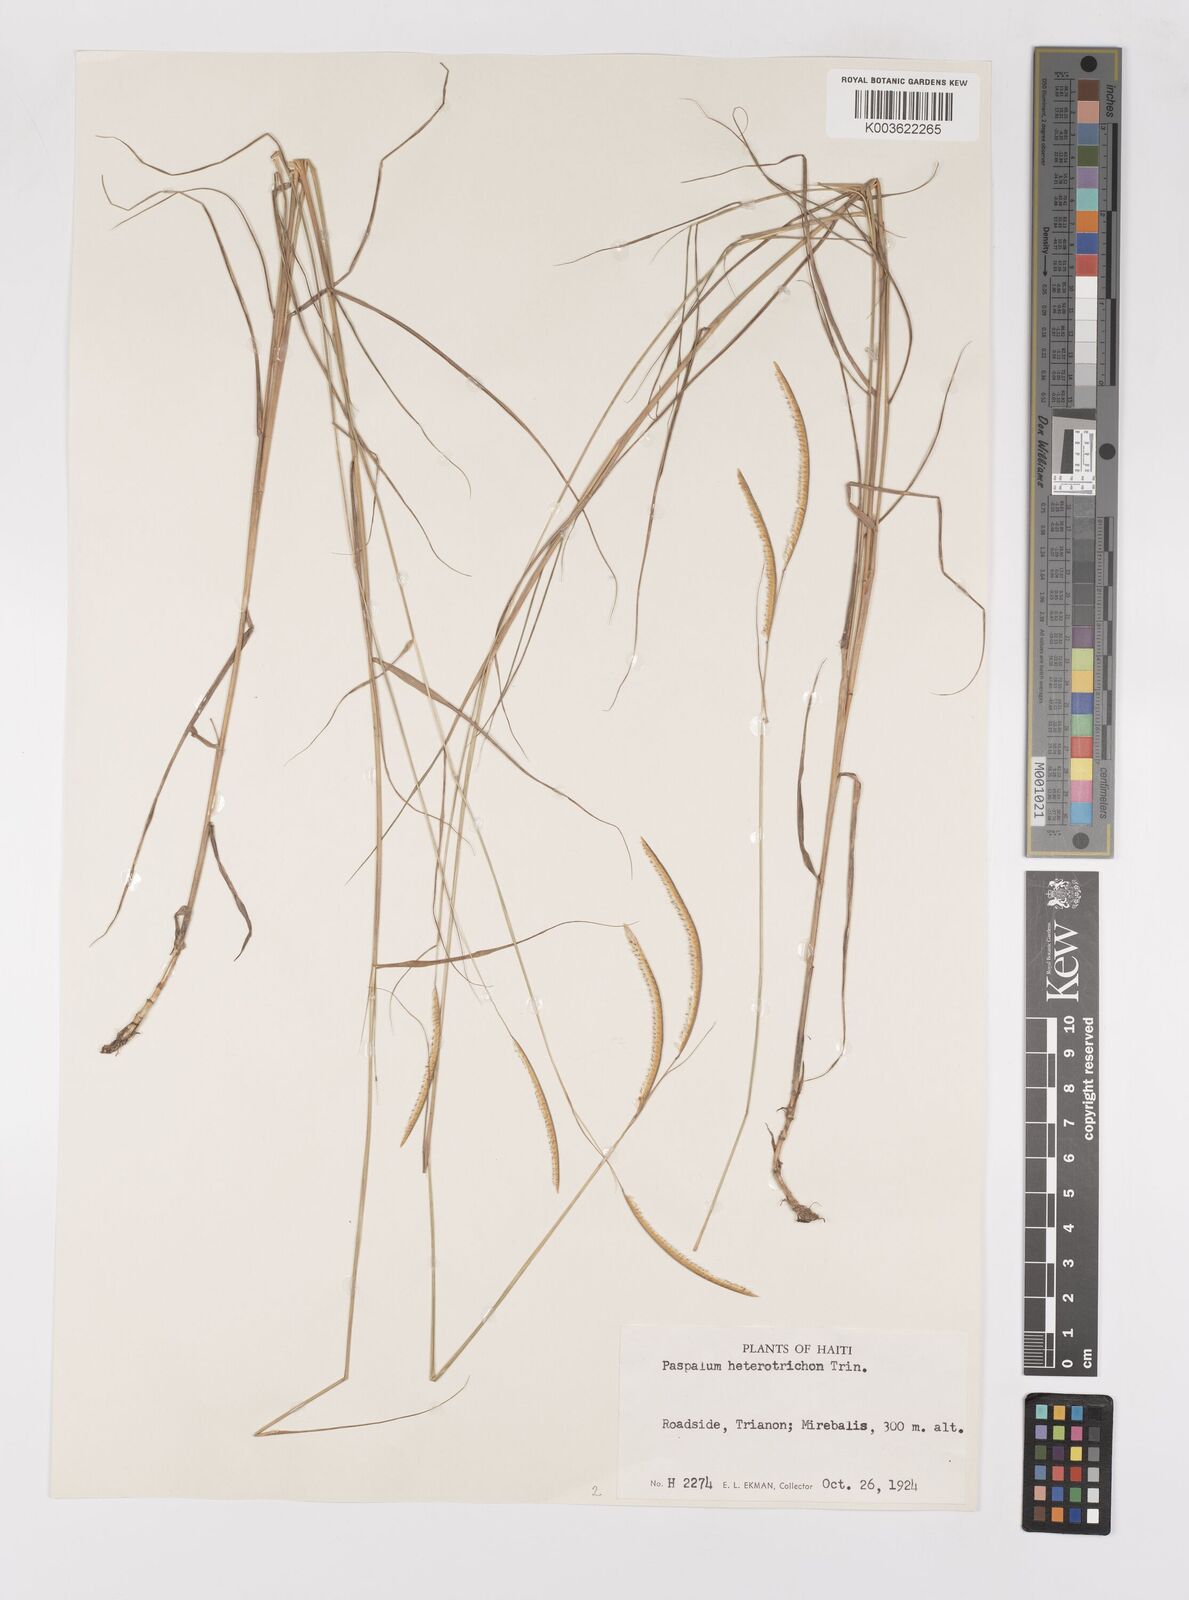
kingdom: Plantae
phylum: Tracheophyta
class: Liliopsida
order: Poales
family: Poaceae
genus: Paspalum
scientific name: Paspalum heterotrichon
